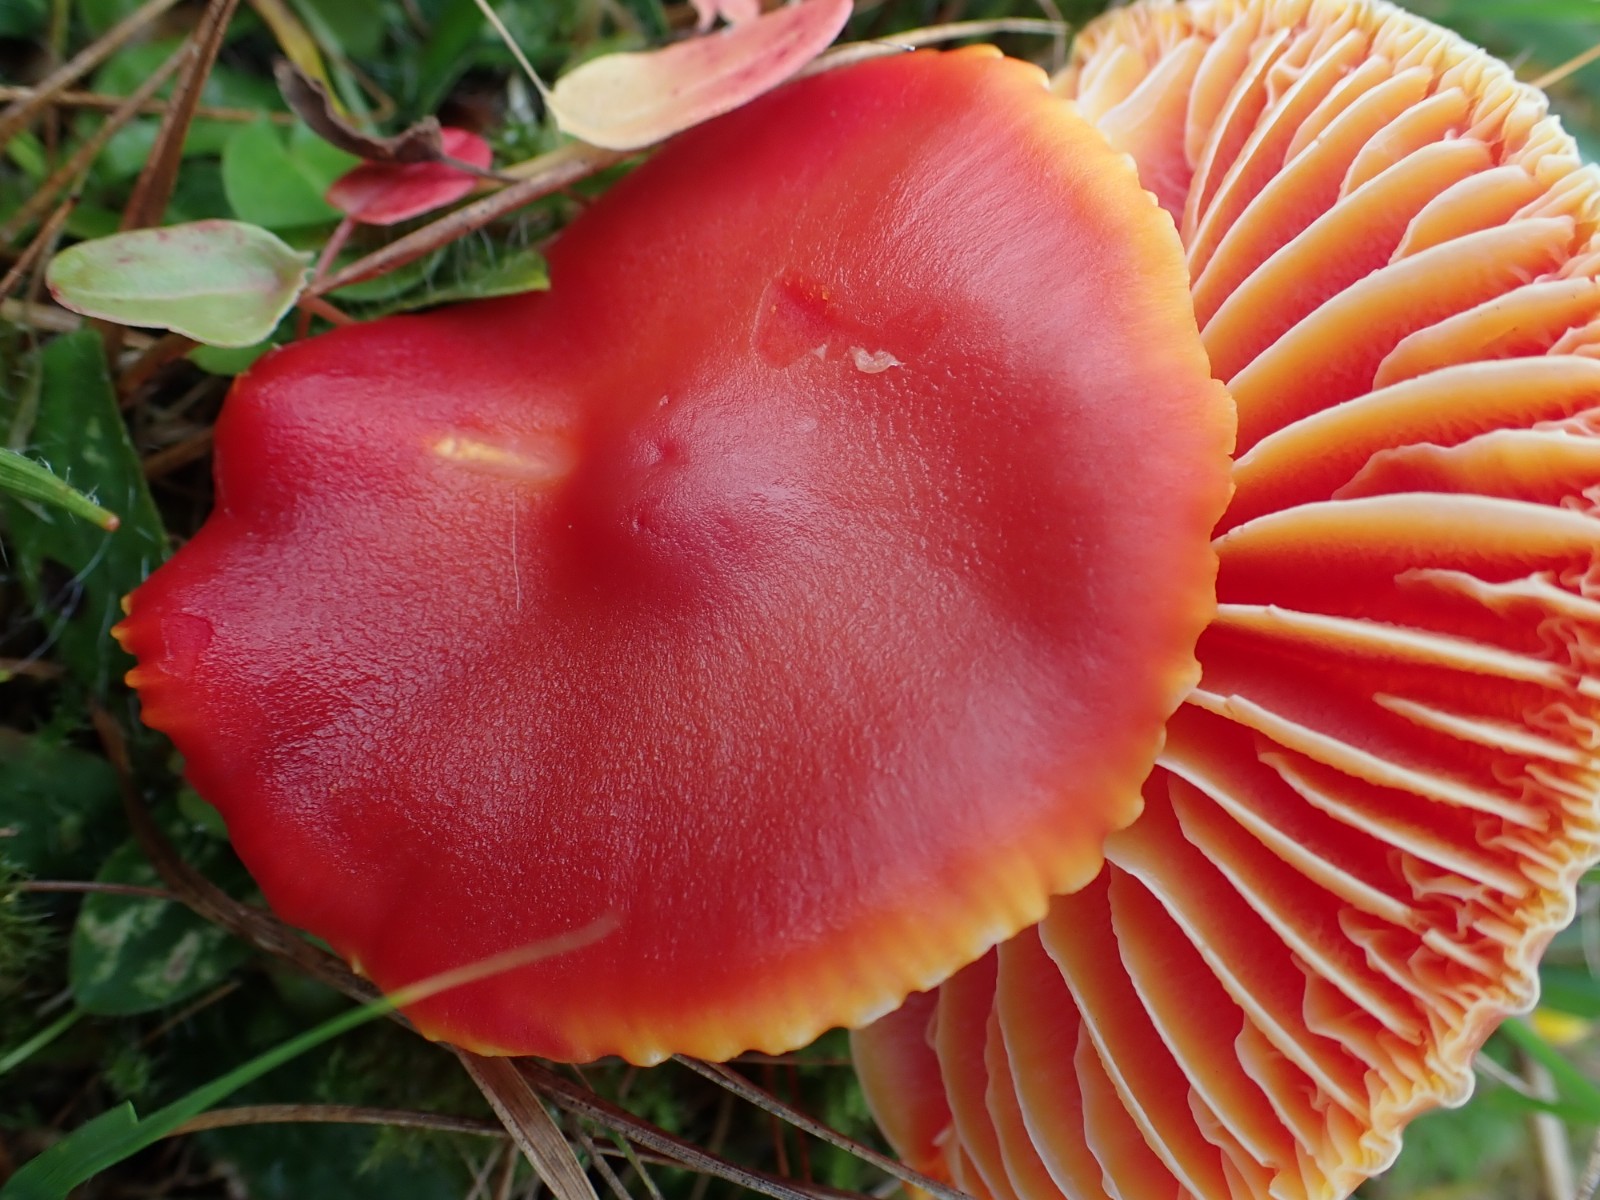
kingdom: Fungi
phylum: Basidiomycota
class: Agaricomycetes
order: Agaricales
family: Hygrophoraceae
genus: Hygrocybe
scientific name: Hygrocybe coccinea
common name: cinnober-vokshat
